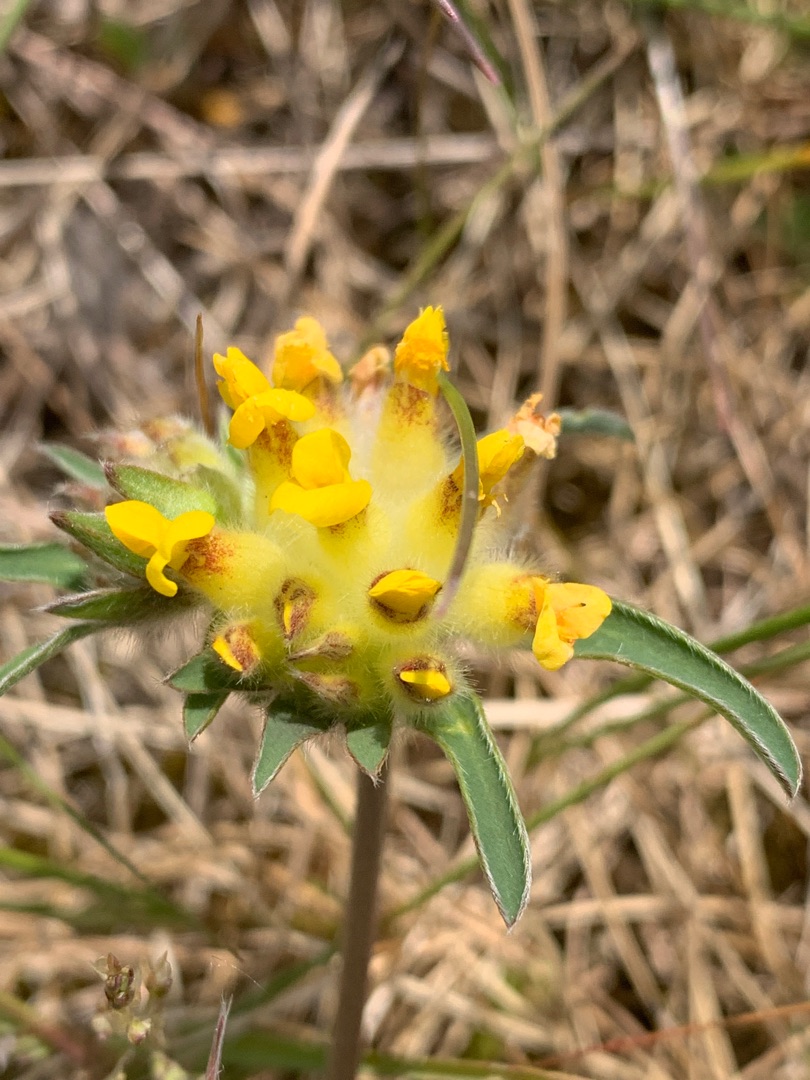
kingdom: Plantae
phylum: Tracheophyta
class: Magnoliopsida
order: Fabales
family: Fabaceae
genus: Anthyllis
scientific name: Anthyllis vulneraria
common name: Rundbælg
